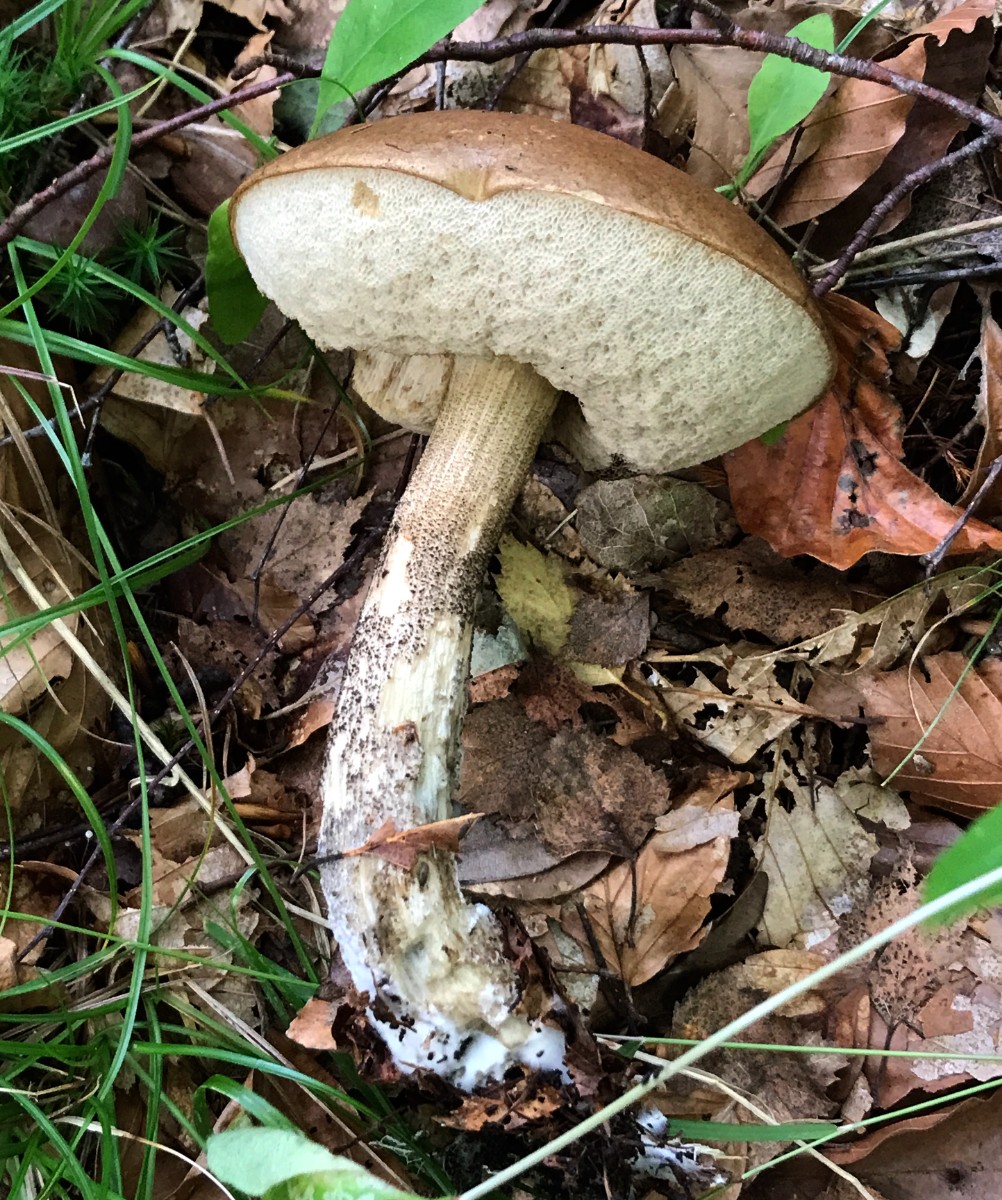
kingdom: Fungi
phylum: Basidiomycota
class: Agaricomycetes
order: Boletales
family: Boletaceae
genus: Leccinum
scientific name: Leccinum scabrum
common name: brun skælrørhat
